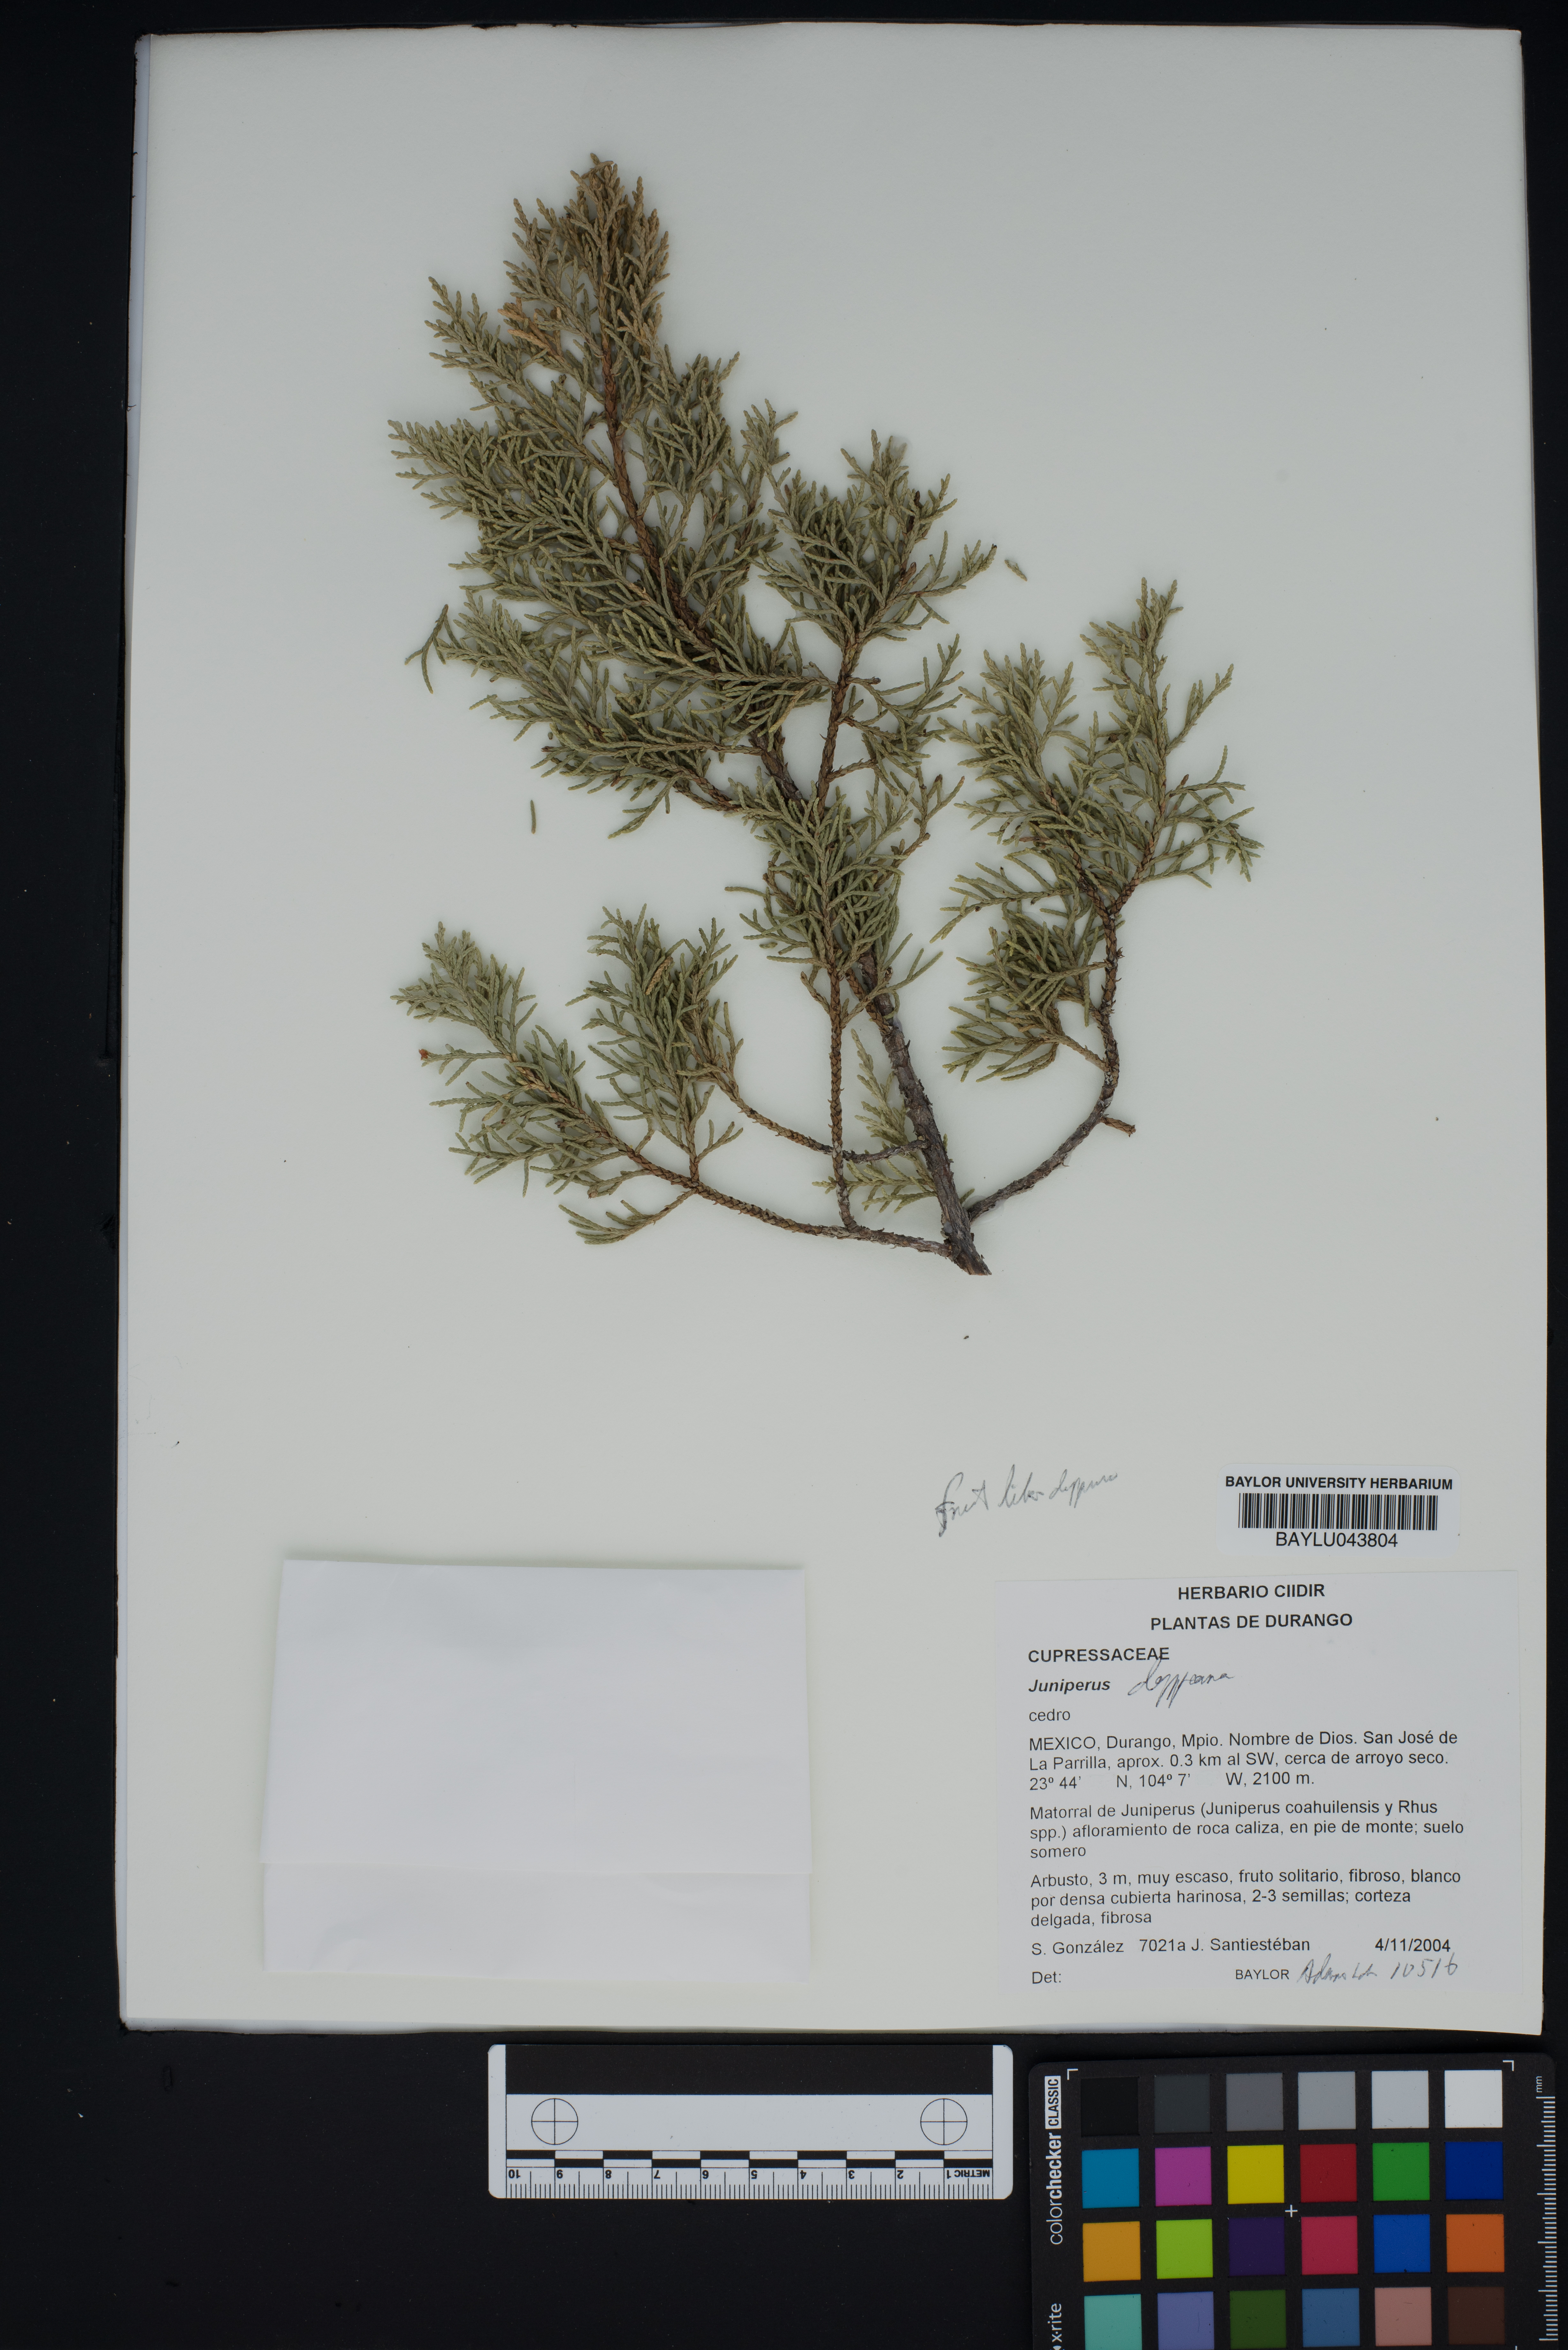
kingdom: Plantae
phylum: Tracheophyta
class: Pinopsida
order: Pinales
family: Cupressaceae
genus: Juniperus
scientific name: Juniperus deppeana
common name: Alligator juniper
